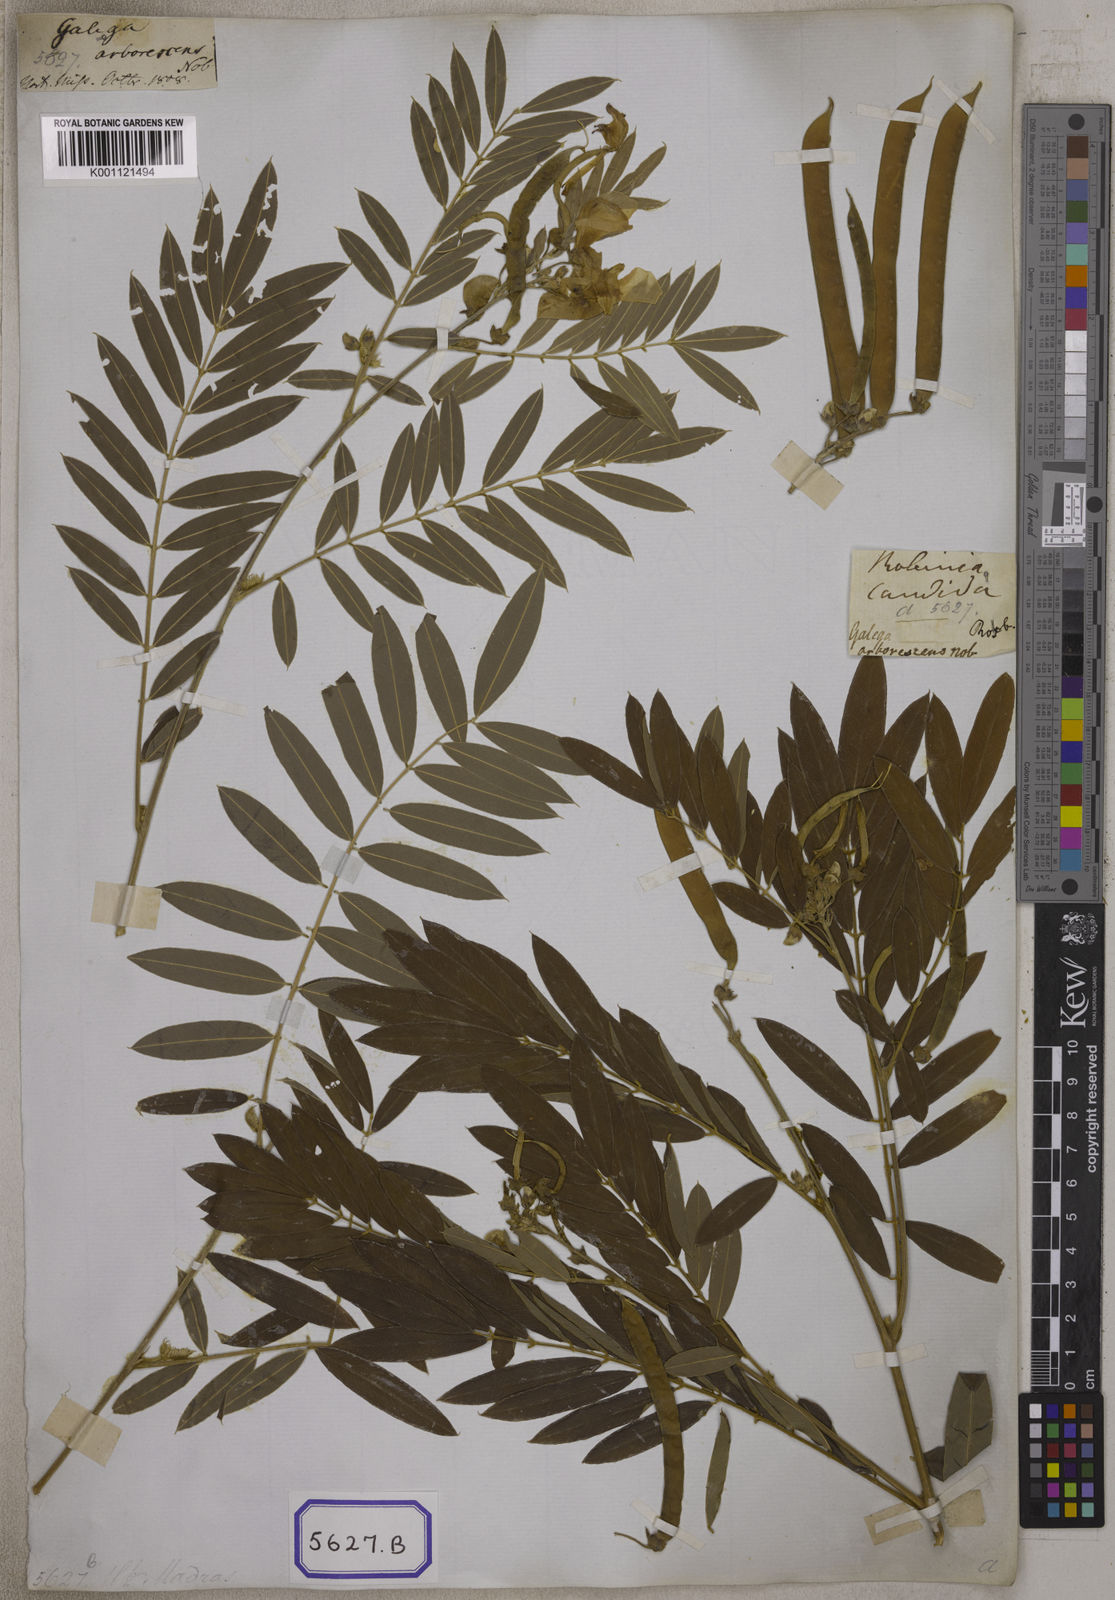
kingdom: Plantae
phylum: Tracheophyta
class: Magnoliopsida
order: Fabales
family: Fabaceae
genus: Tephrosia
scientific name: Tephrosia candida
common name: White tephrosia
